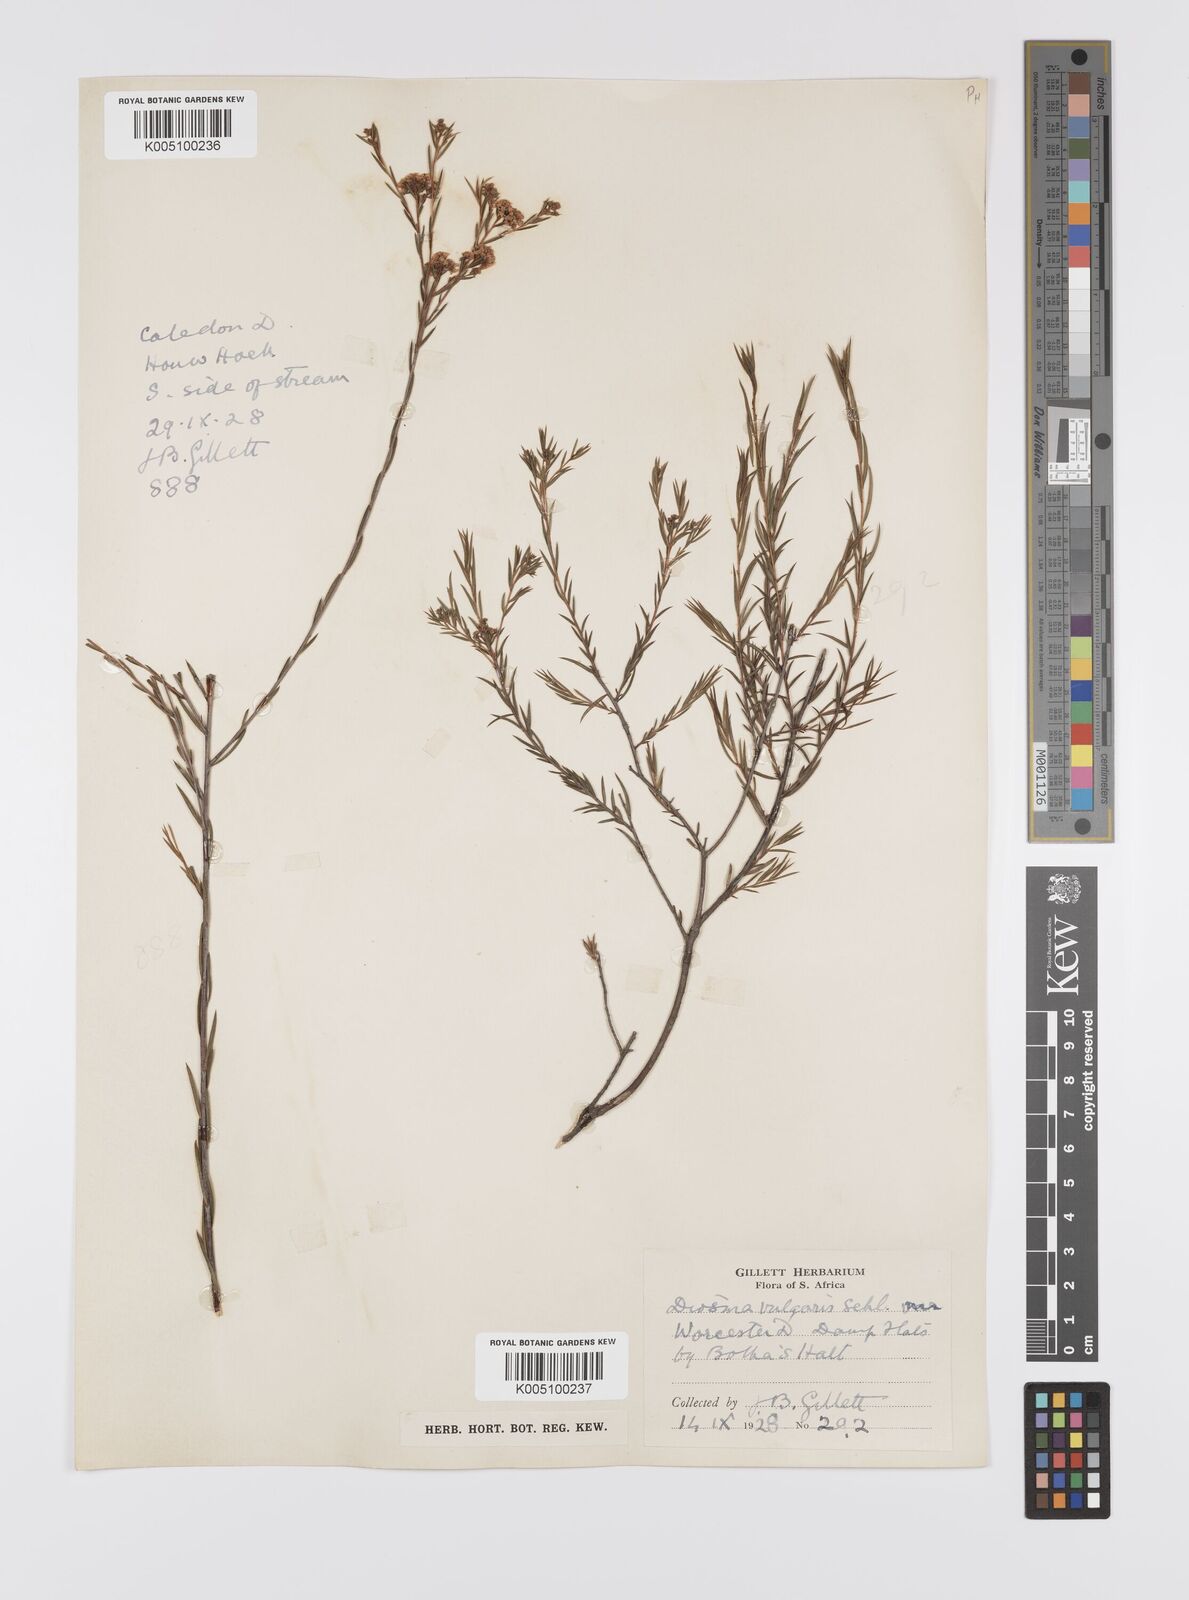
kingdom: Plantae
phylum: Tracheophyta
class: Magnoliopsida
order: Sapindales
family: Rutaceae
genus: Diosma
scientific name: Diosma hirsuta
